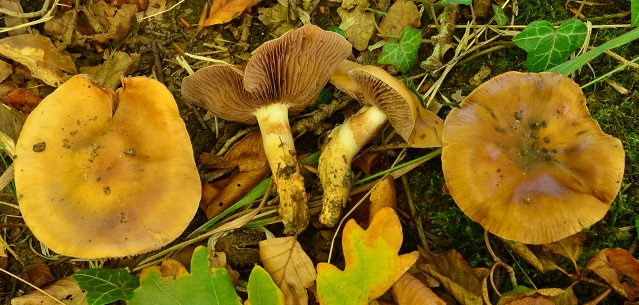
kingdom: Fungi
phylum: Basidiomycota
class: Agaricomycetes
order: Agaricales
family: Cortinariaceae
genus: Cortinarius
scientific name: Cortinarius trivialis
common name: Girdled webcap
